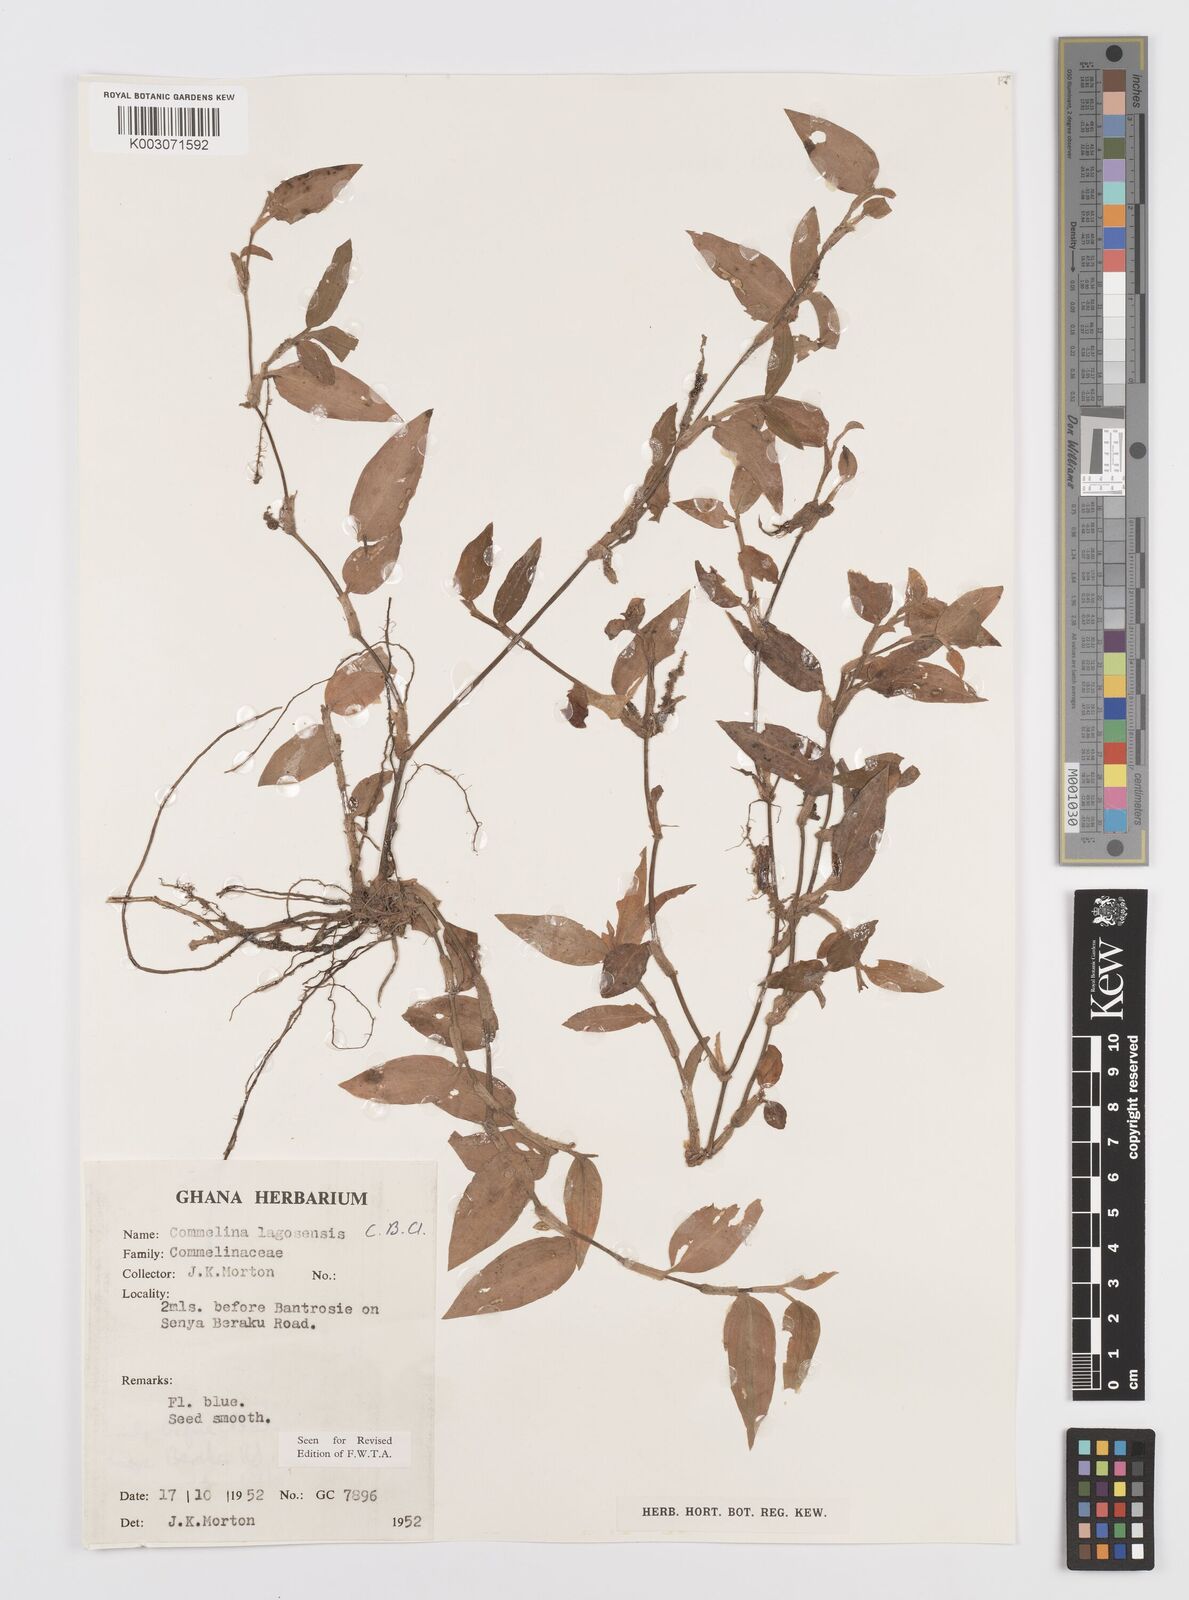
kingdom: Plantae
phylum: Tracheophyta
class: Liliopsida
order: Commelinales
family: Commelinaceae
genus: Commelina
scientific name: Commelina bracteosa
